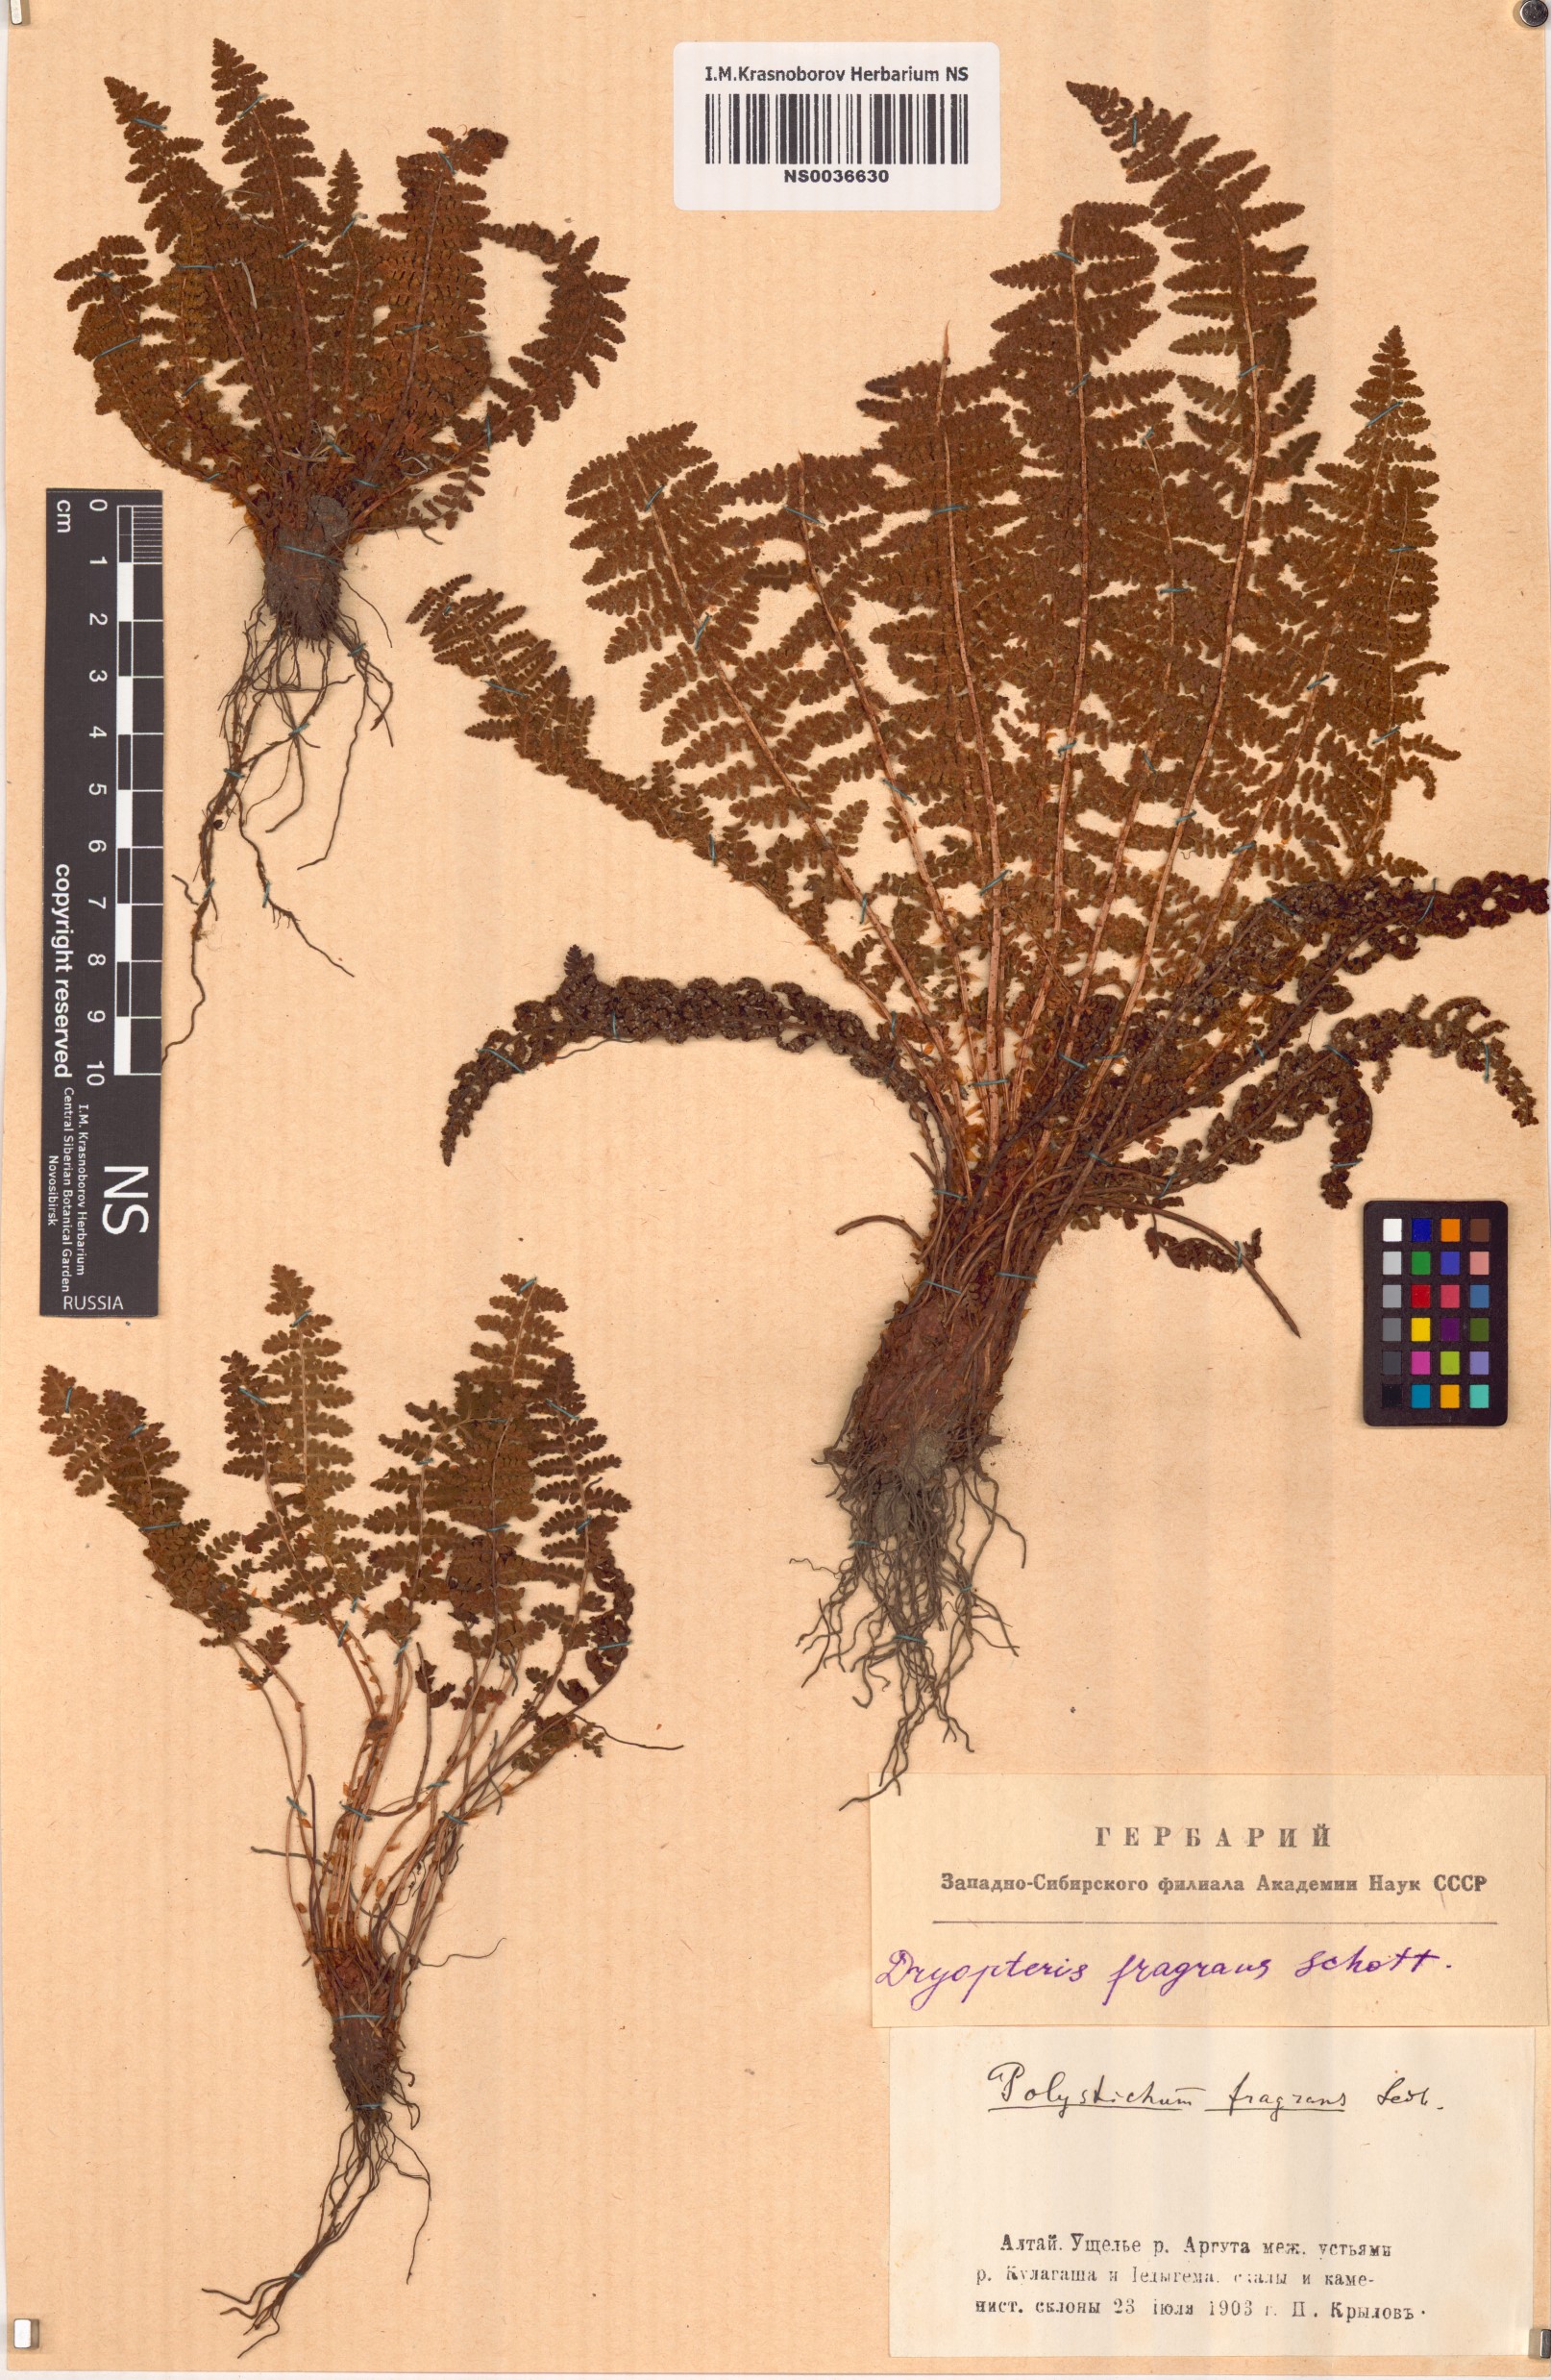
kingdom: Plantae
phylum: Tracheophyta
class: Polypodiopsida
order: Polypodiales
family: Dryopteridaceae
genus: Dryopteris
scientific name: Dryopteris fragrans
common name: Fragrant wood fern
